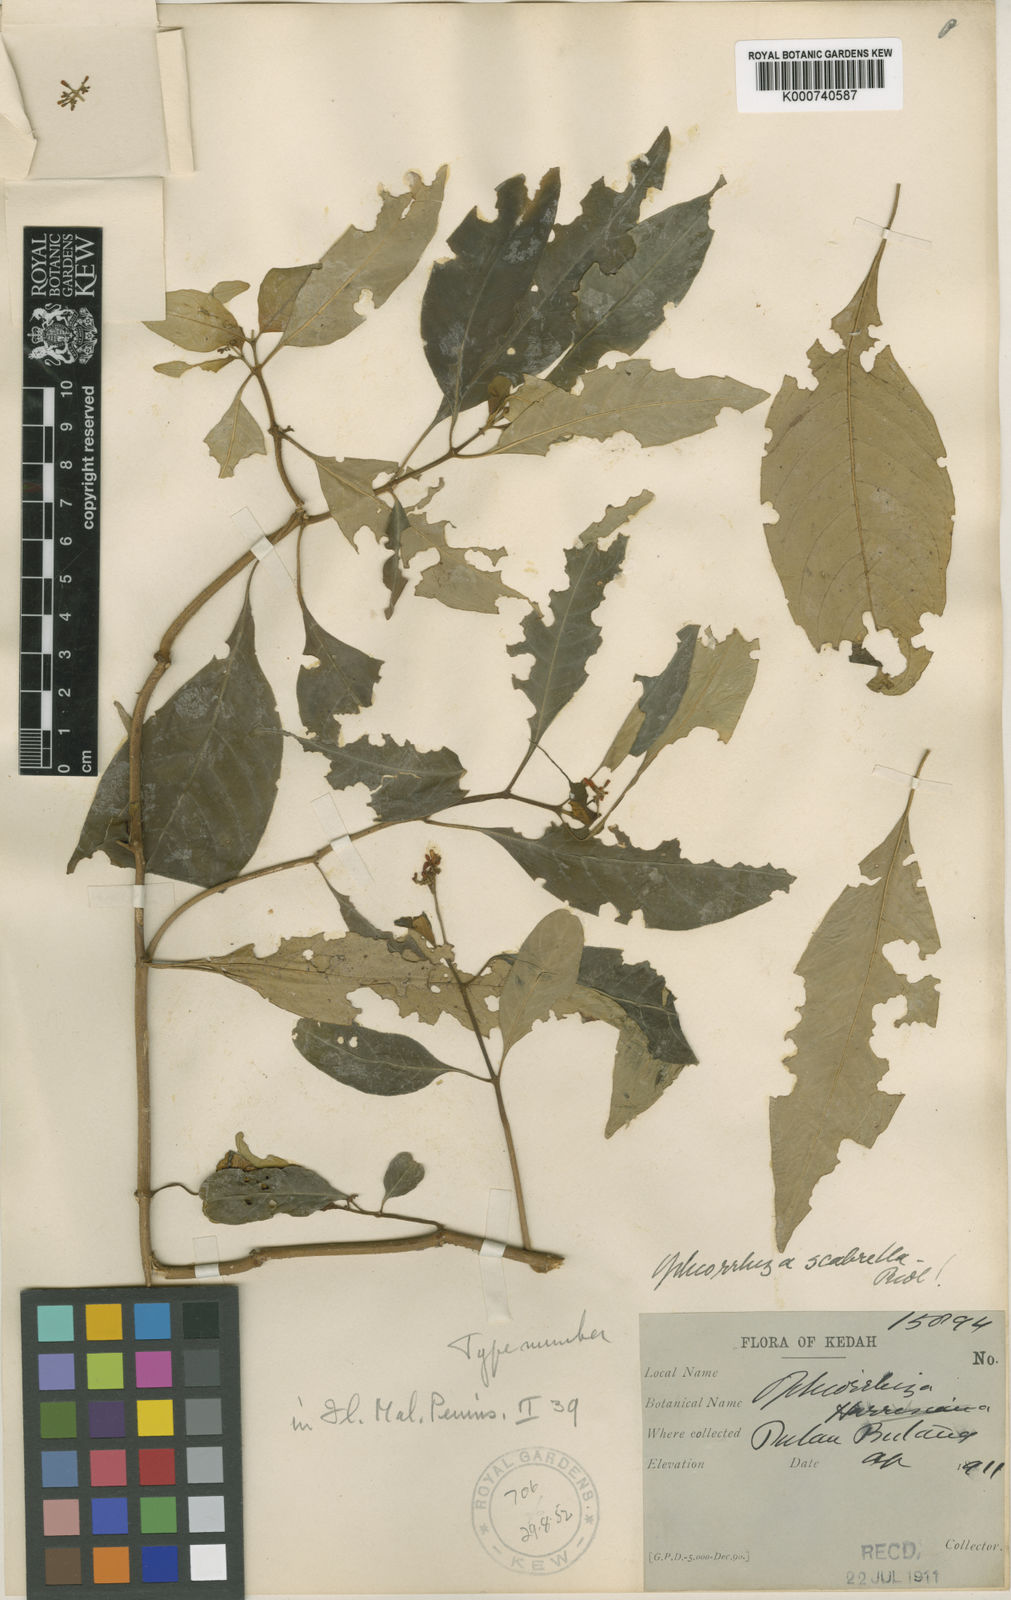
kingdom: Plantae
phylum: Tracheophyta
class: Magnoliopsida
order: Gentianales
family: Rubiaceae
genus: Ophiorrhiza
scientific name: Ophiorrhiza major
